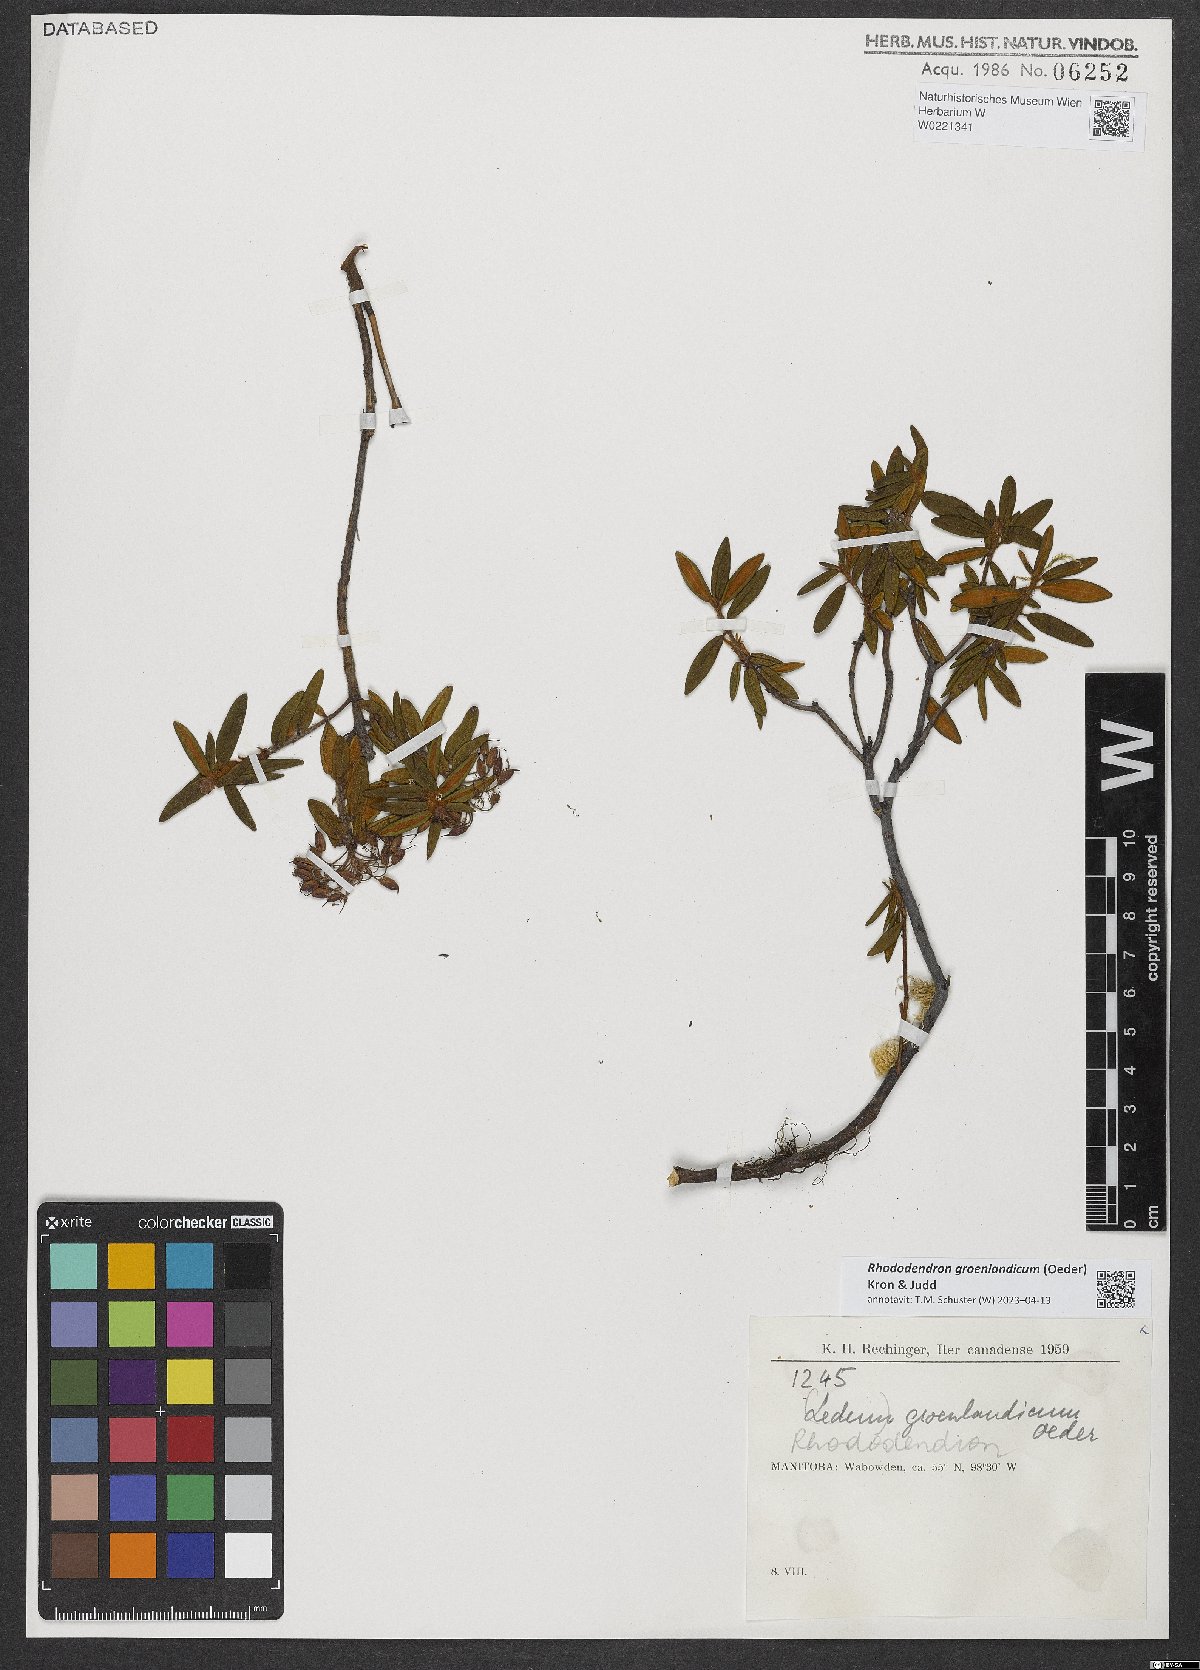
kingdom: Plantae
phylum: Tracheophyta
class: Magnoliopsida
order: Ericales
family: Ericaceae
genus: Rhododendron
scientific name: Rhododendron groenlandicum
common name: Bog labrador tea
